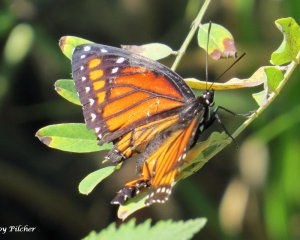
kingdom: Animalia
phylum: Arthropoda
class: Insecta
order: Lepidoptera
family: Nymphalidae
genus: Limenitis
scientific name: Limenitis archippus
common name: Viceroy
